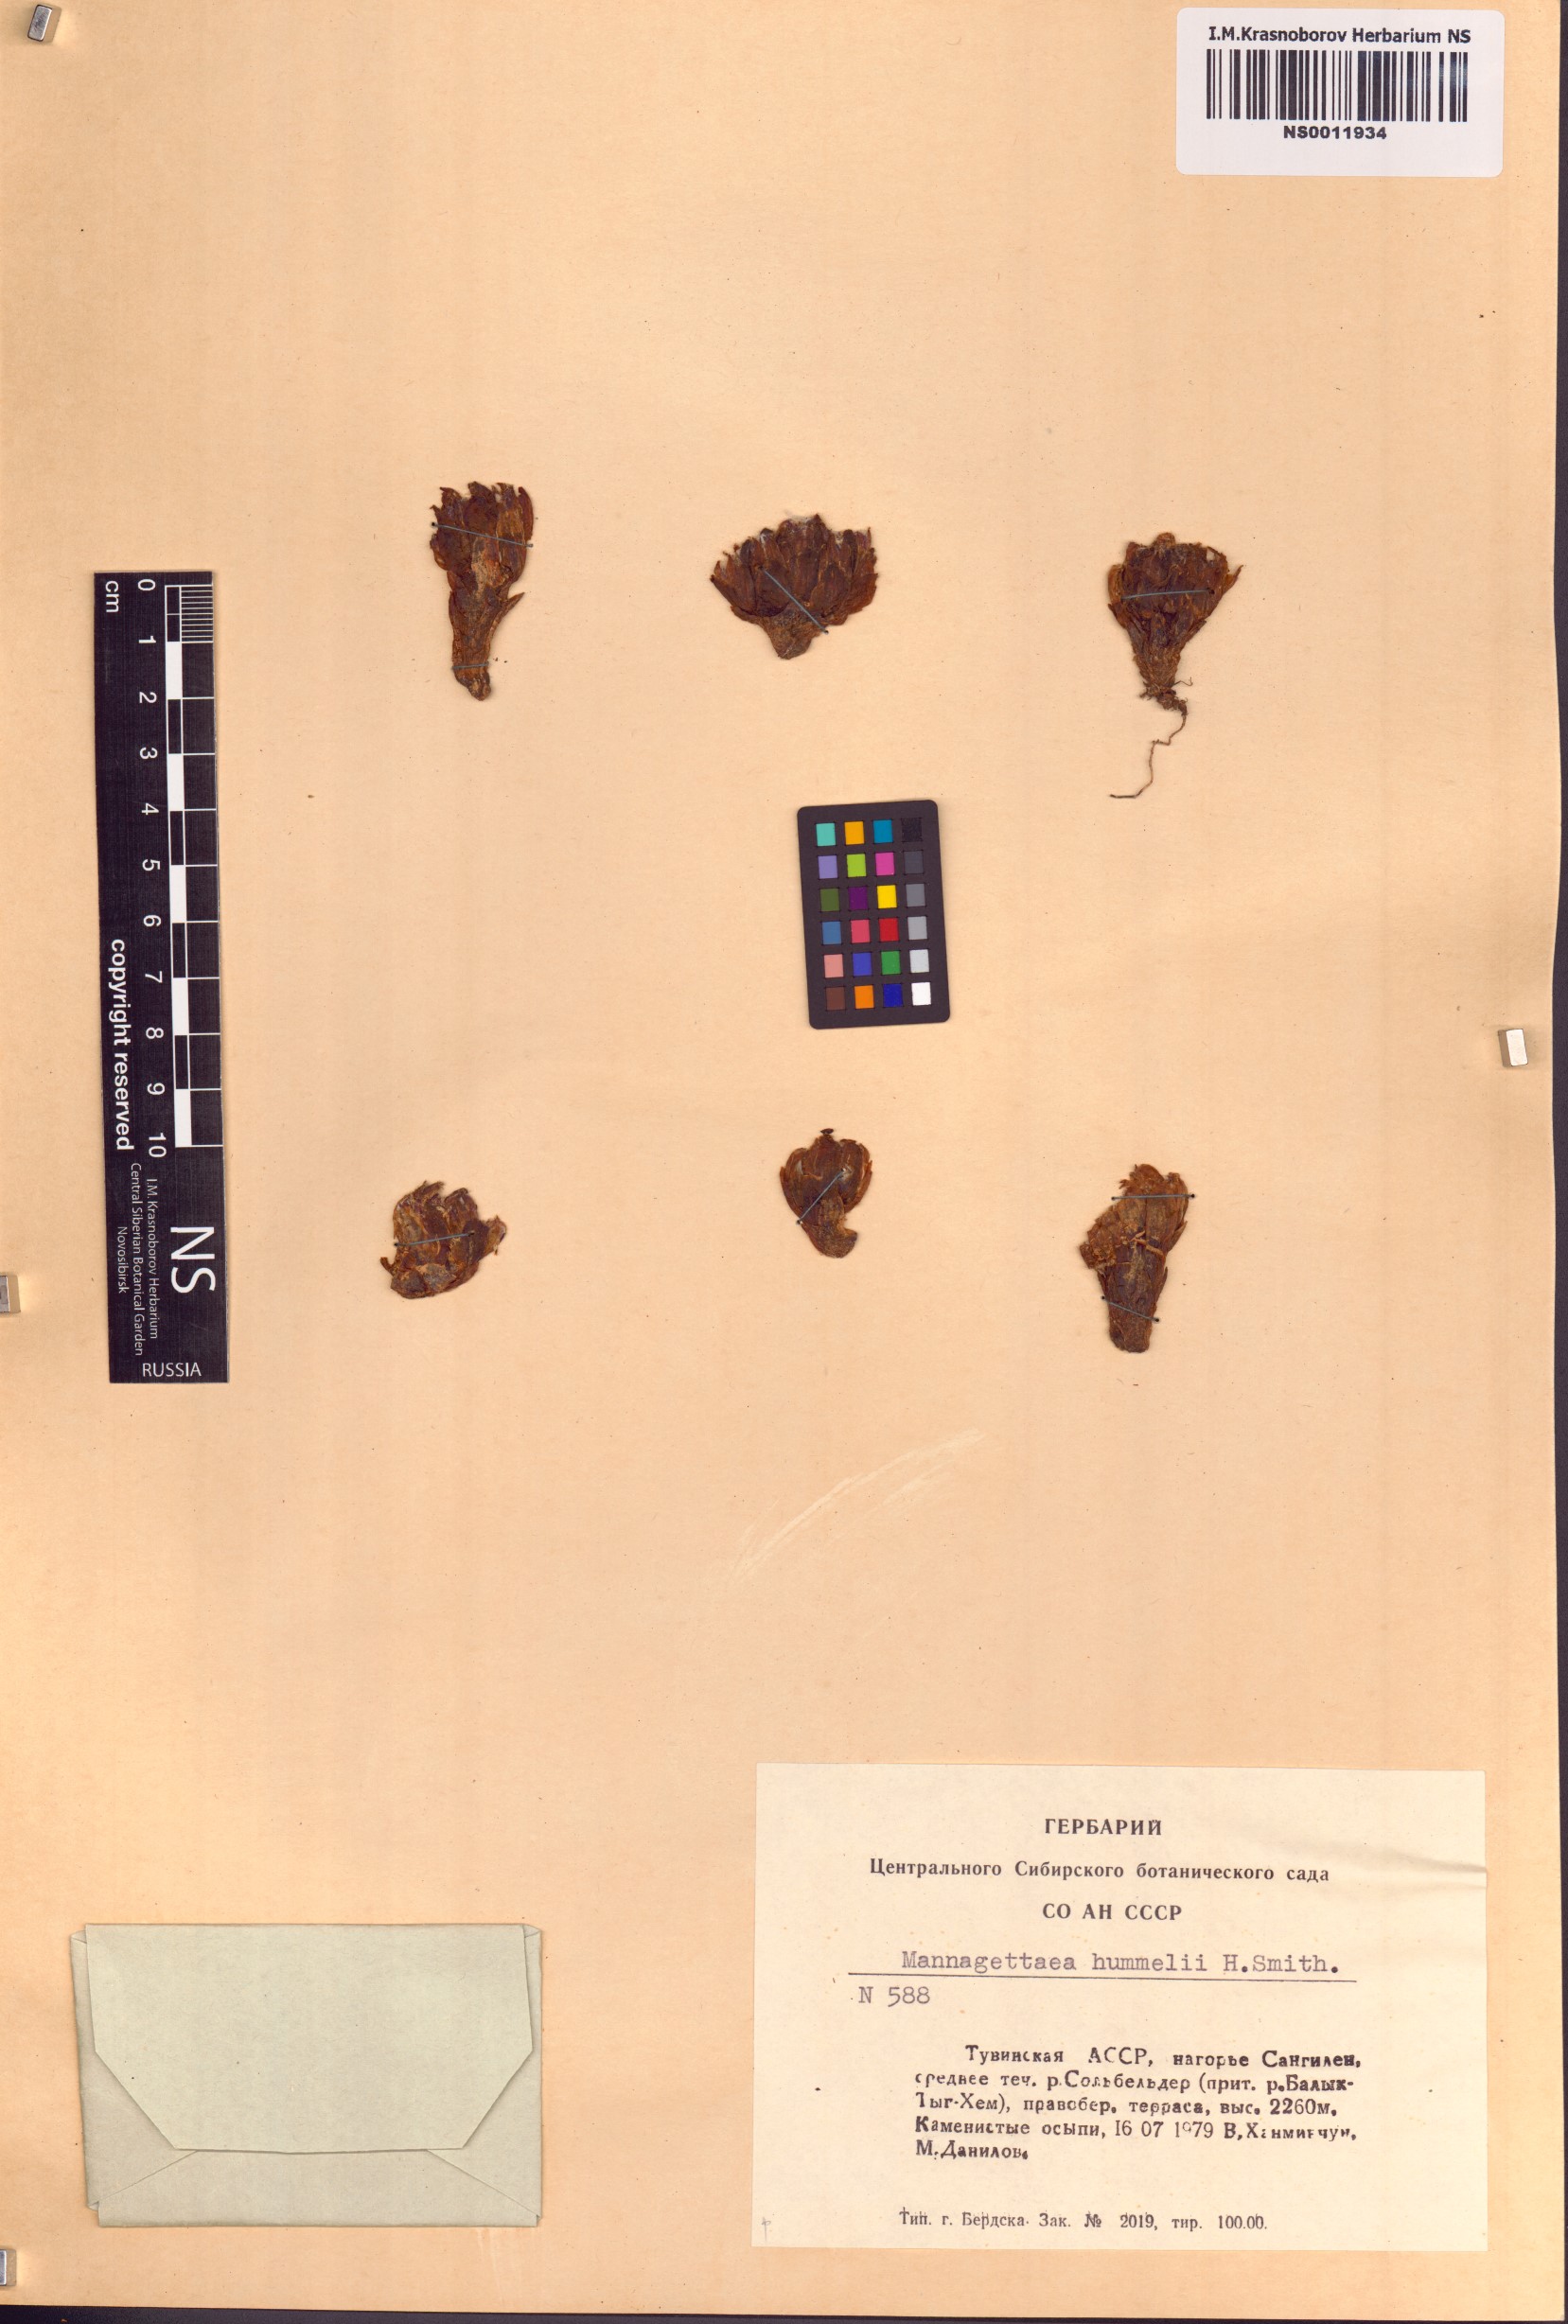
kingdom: Plantae
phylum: Tracheophyta
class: Magnoliopsida
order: Lamiales
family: Orobanchaceae
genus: Mannagettaea
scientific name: Mannagettaea hummelii
